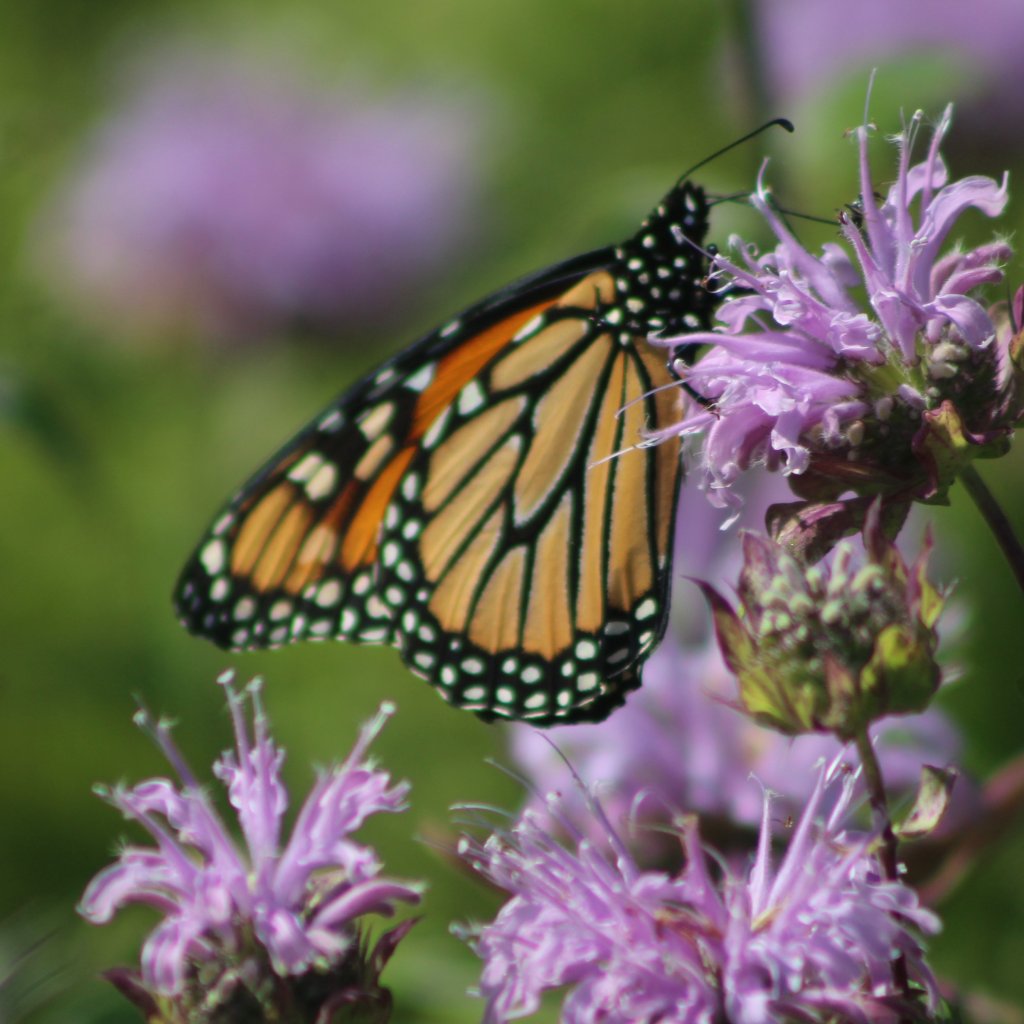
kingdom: Animalia
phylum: Arthropoda
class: Insecta
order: Lepidoptera
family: Nymphalidae
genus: Danaus
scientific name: Danaus plexippus
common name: Monarch
